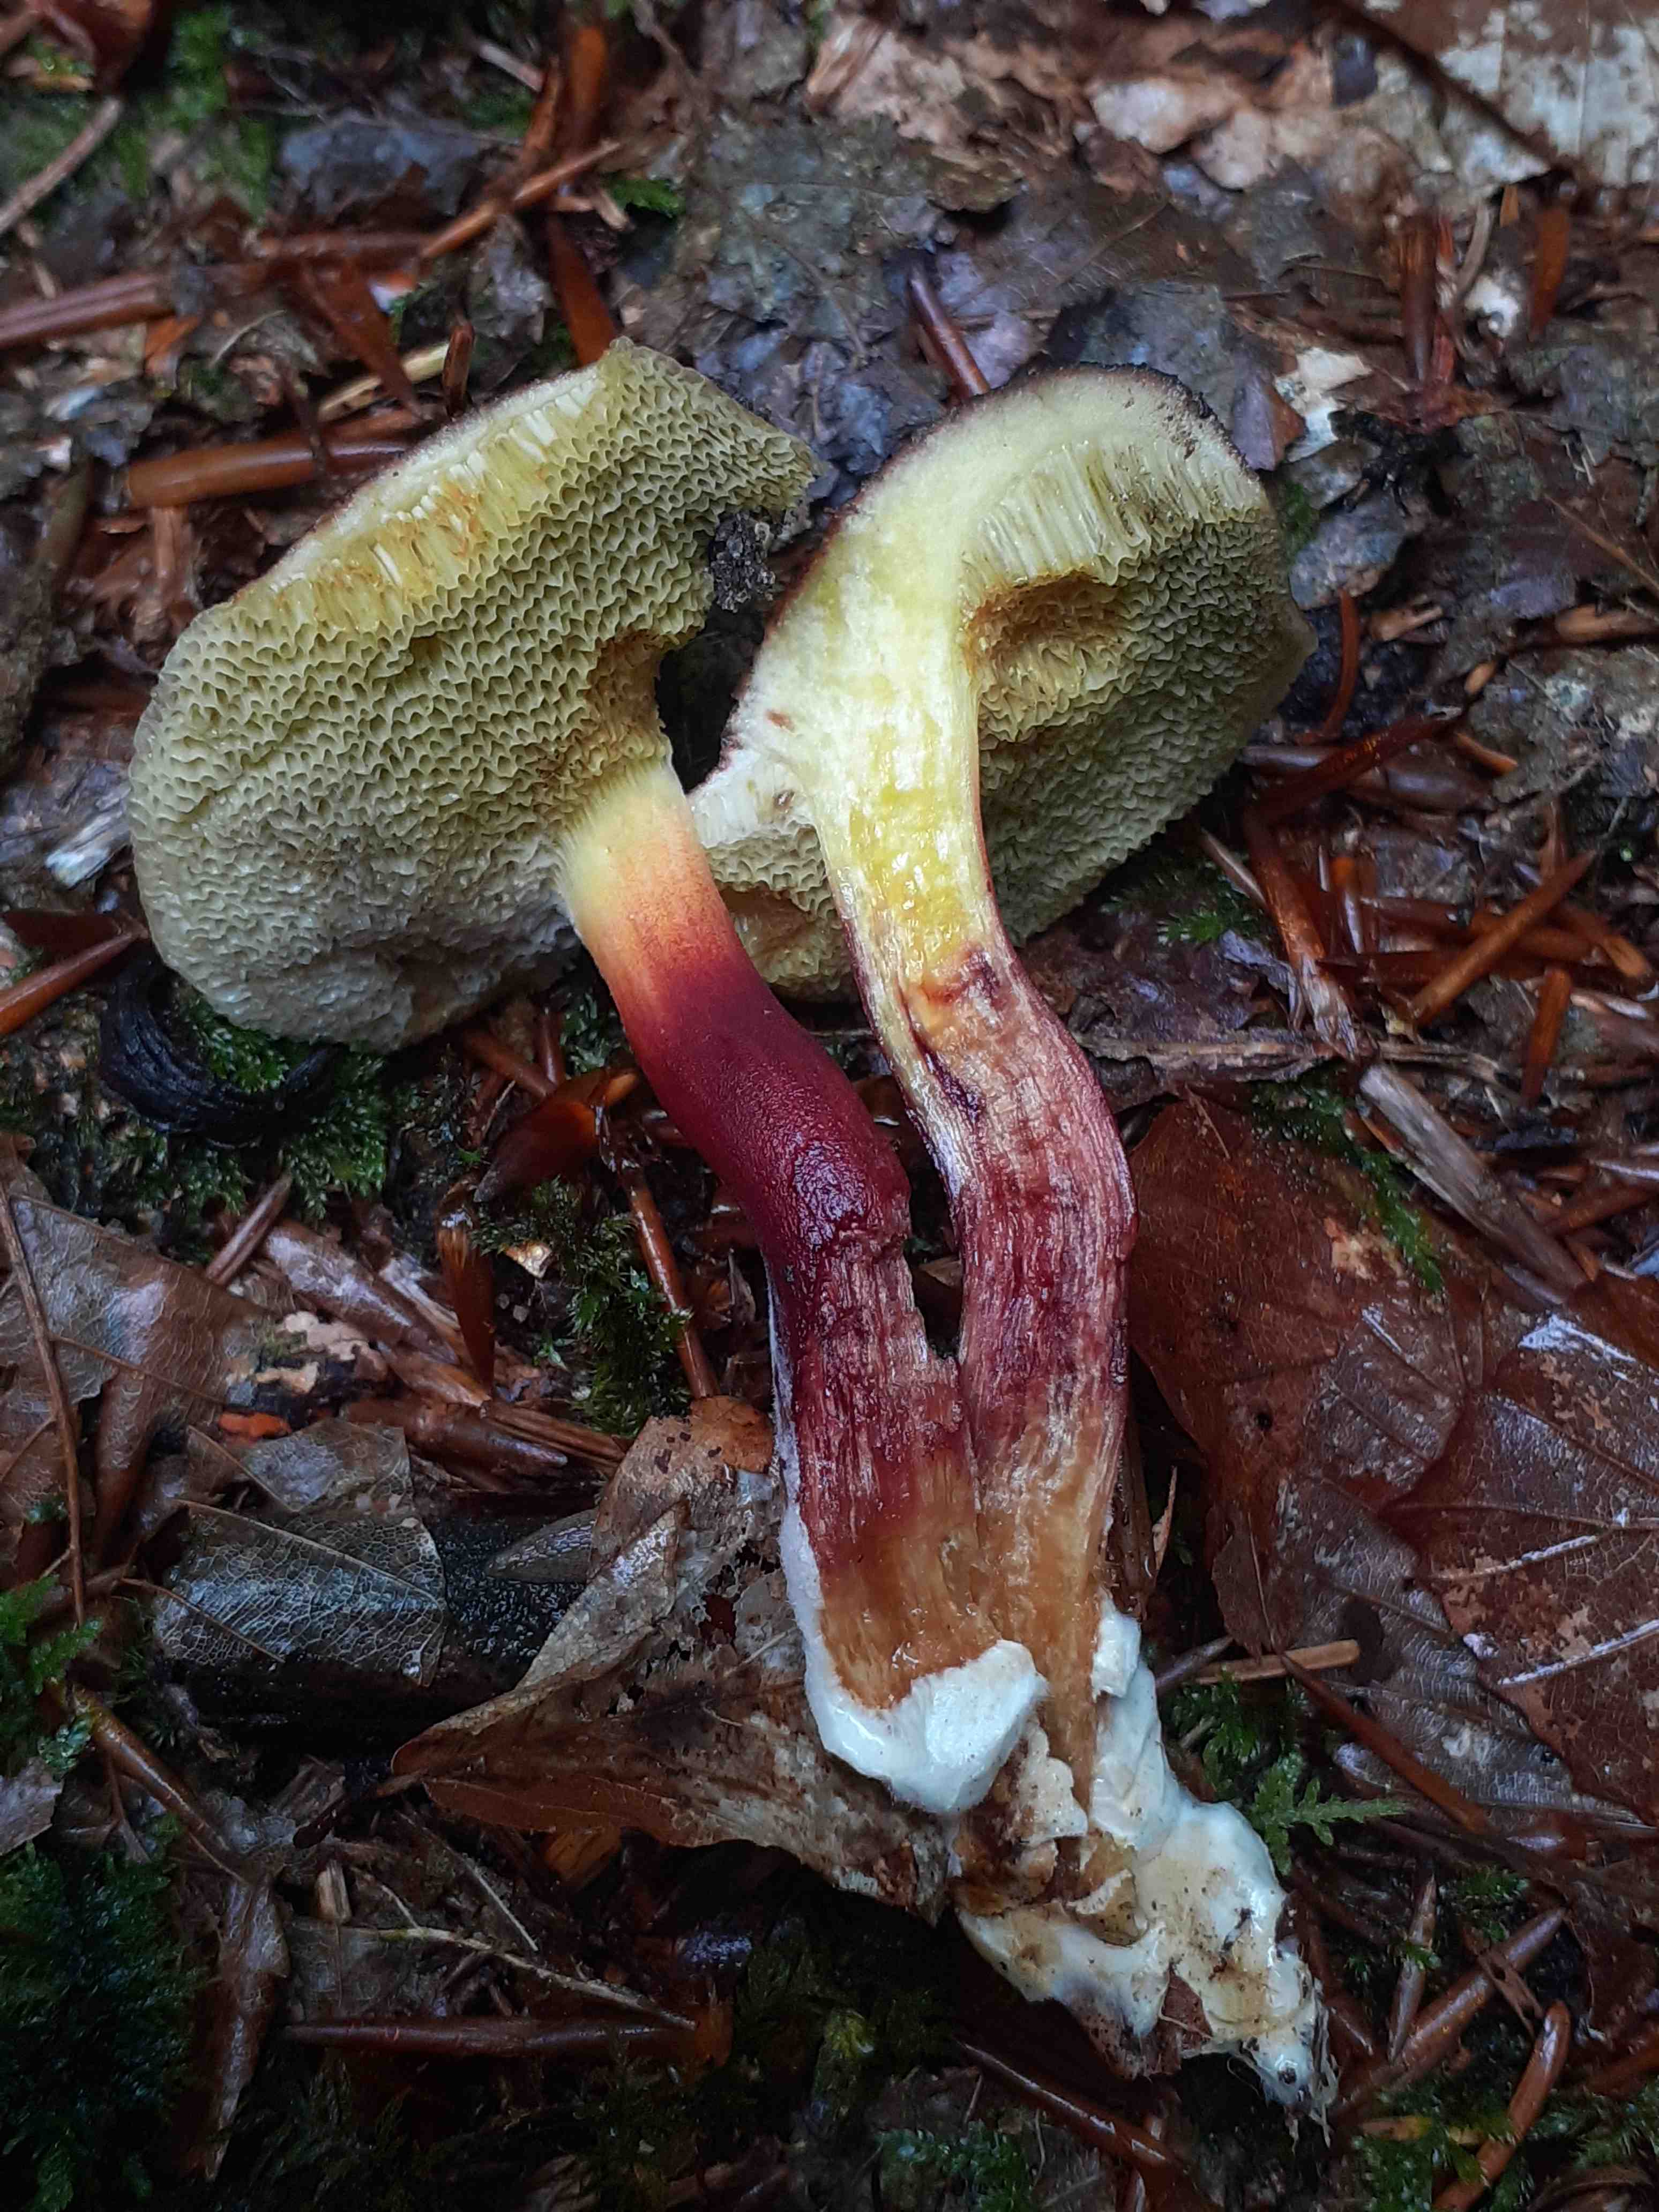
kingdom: Fungi
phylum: Basidiomycota
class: Agaricomycetes
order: Boletales
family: Boletaceae
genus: Xerocomellus
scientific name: Xerocomellus chrysenteron
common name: rødsprukken rørhat
